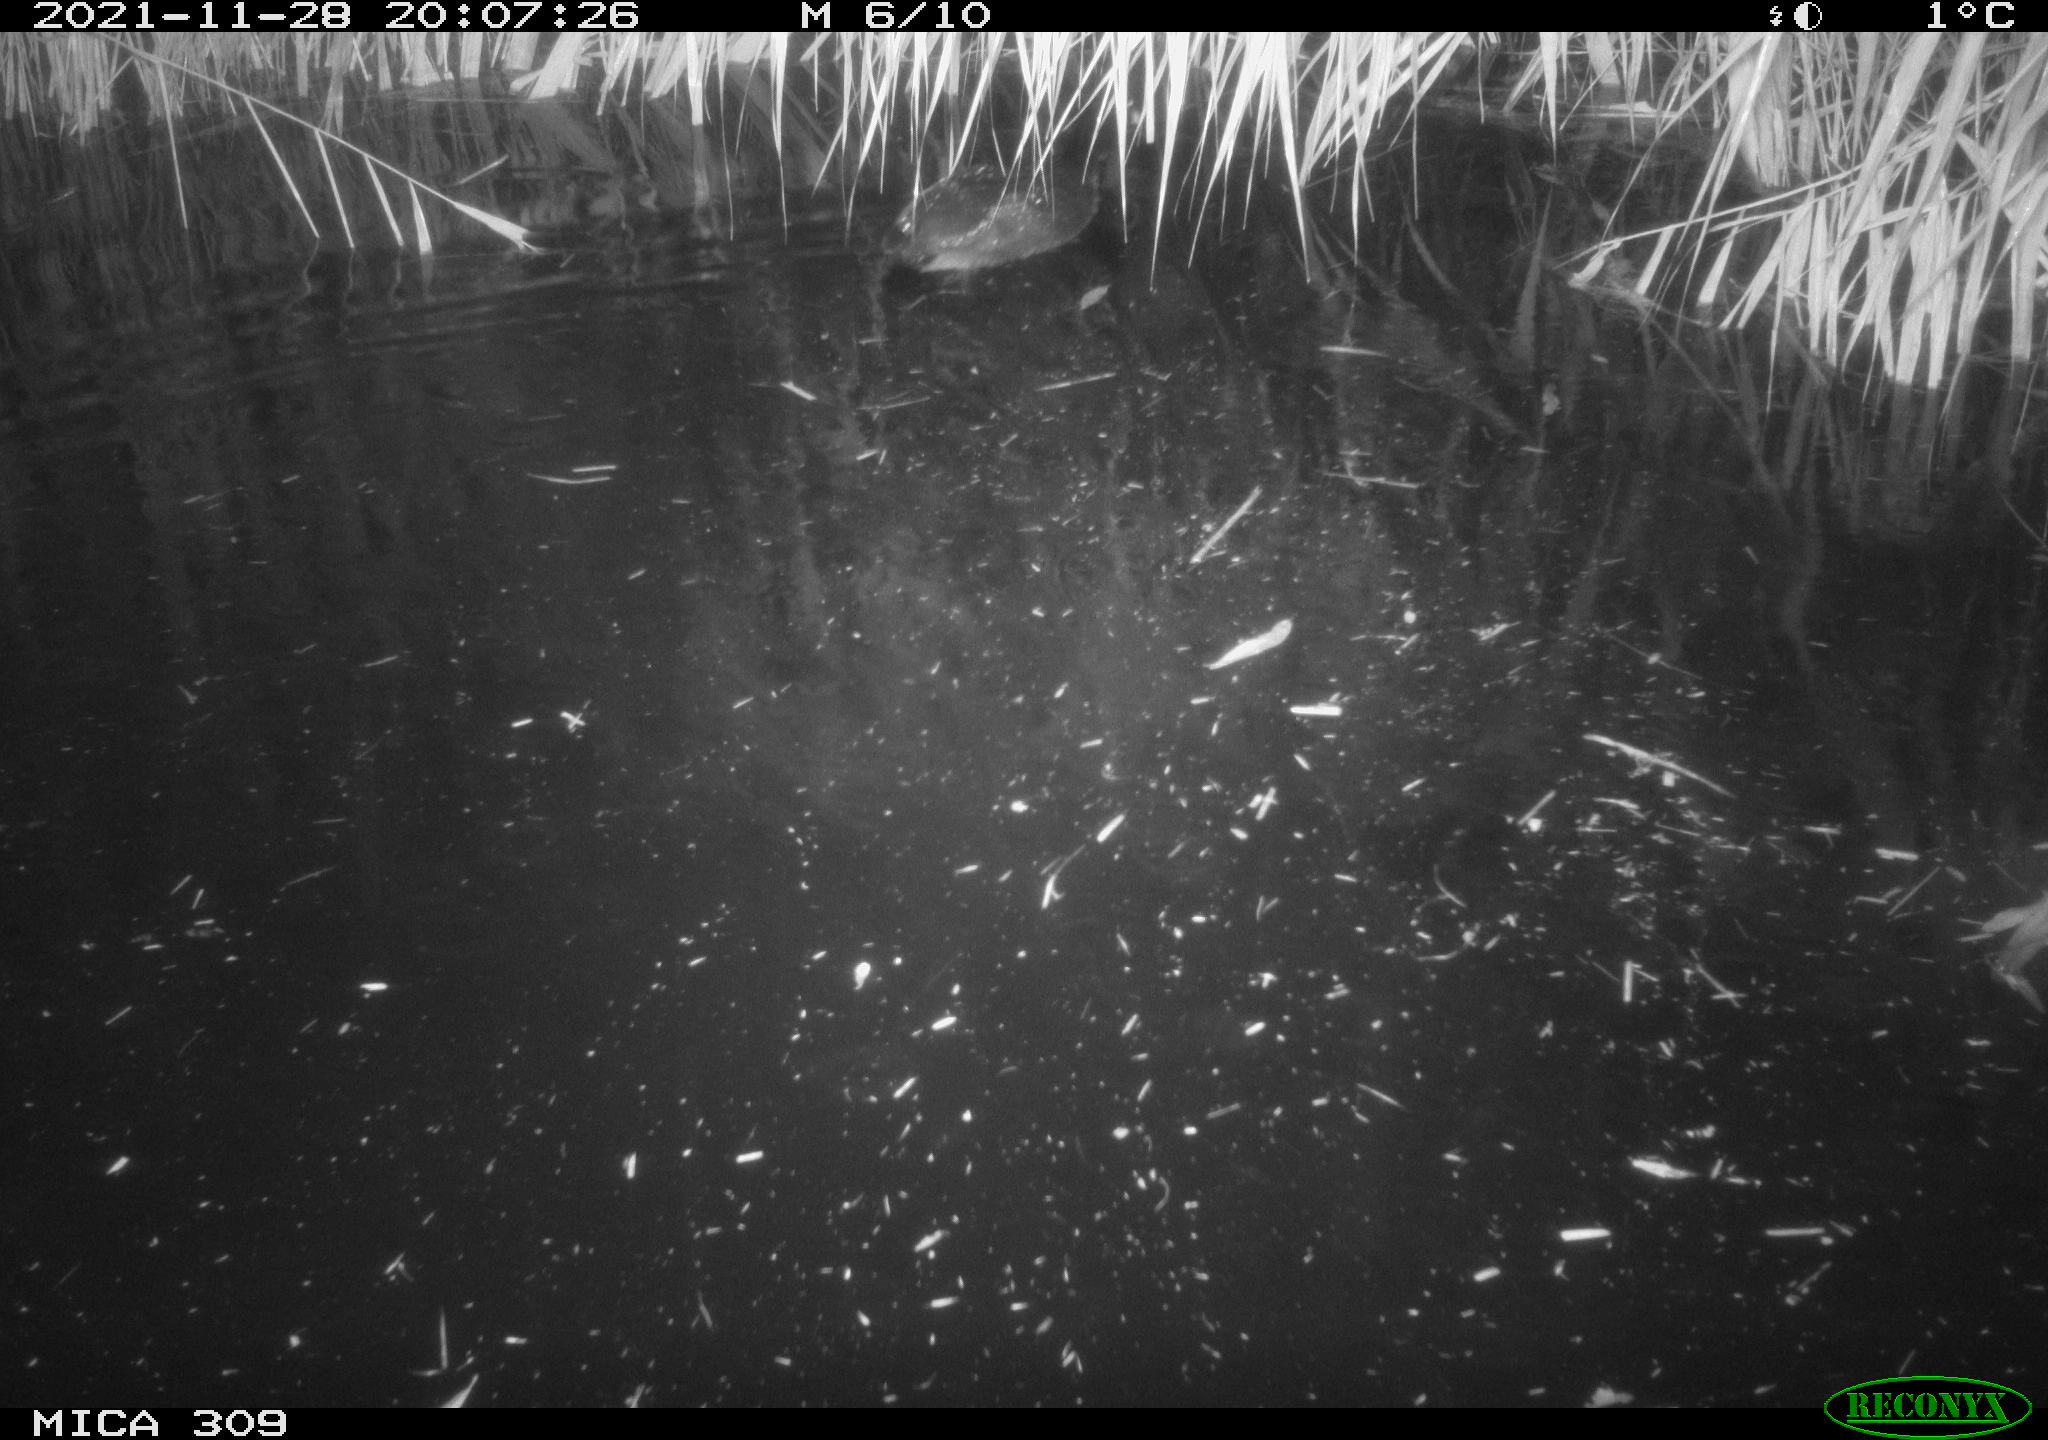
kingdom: Animalia
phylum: Chordata
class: Aves
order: Gruiformes
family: Rallidae
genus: Fulica
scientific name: Fulica atra
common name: Eurasian coot
